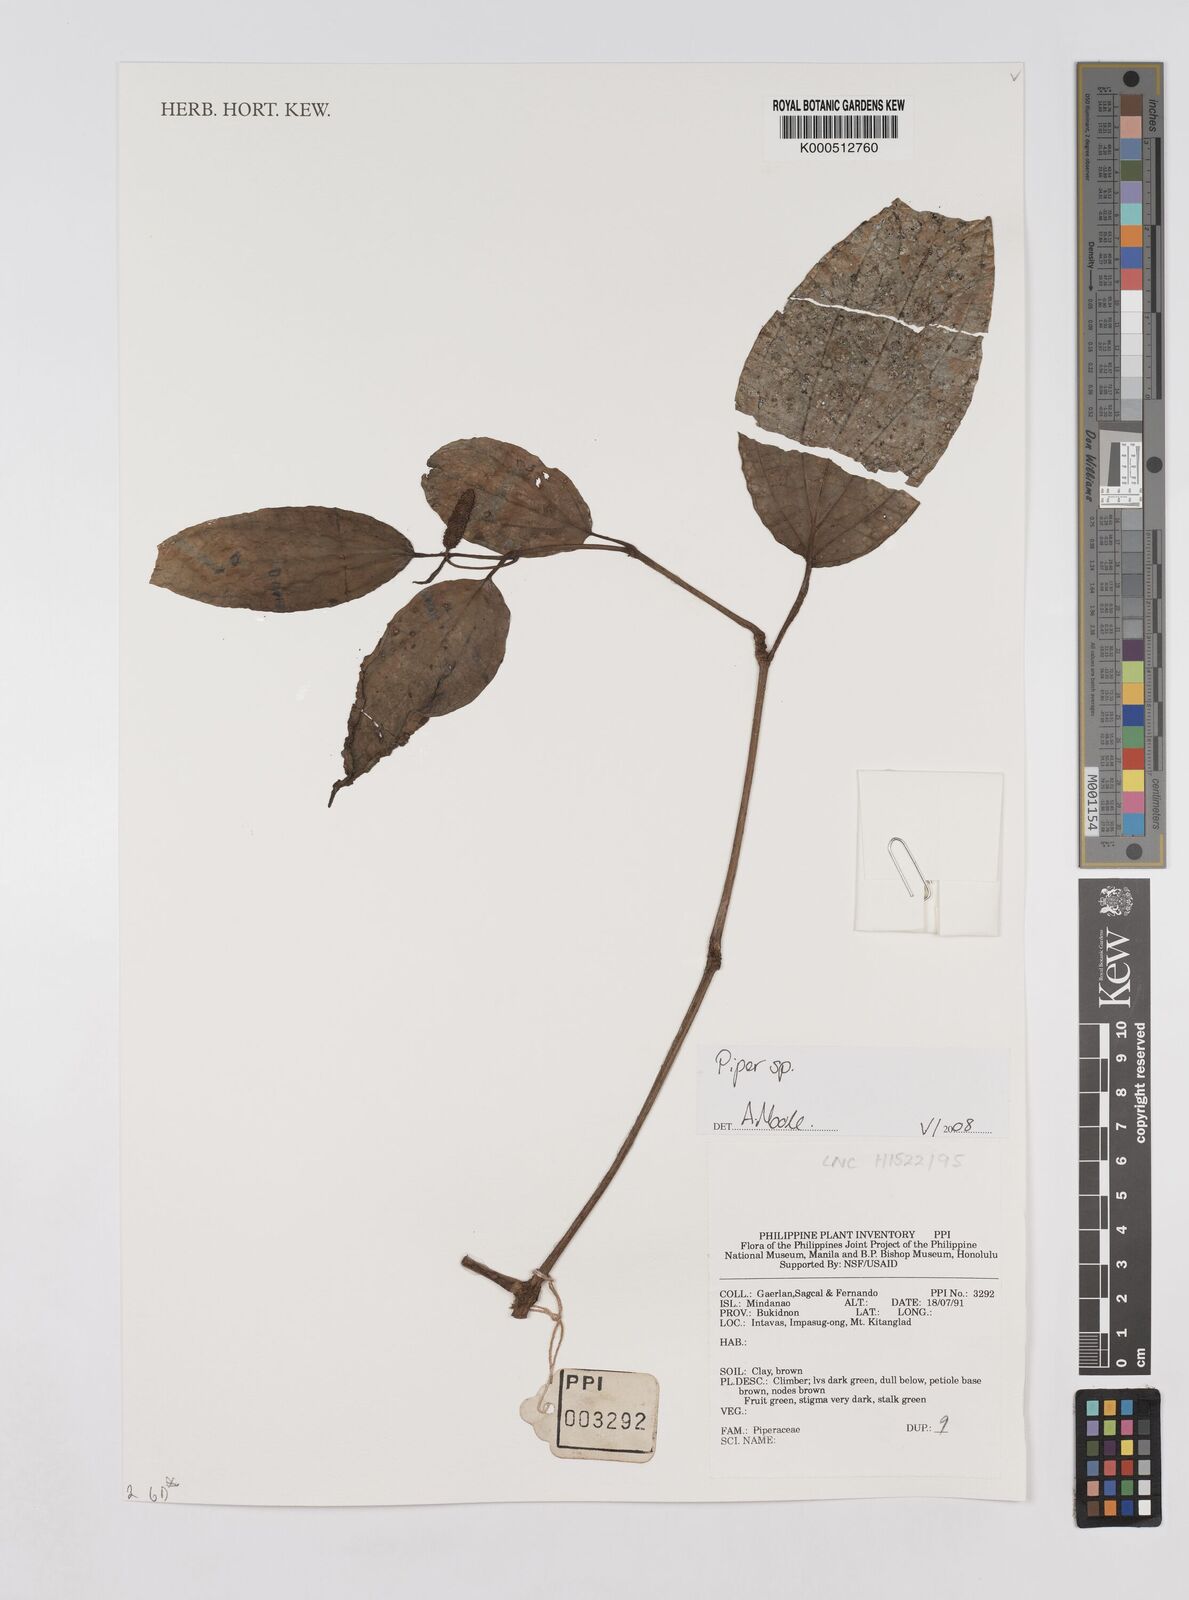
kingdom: Plantae
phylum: Tracheophyta
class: Magnoliopsida
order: Piperales
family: Piperaceae
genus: Piper
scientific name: Piper
